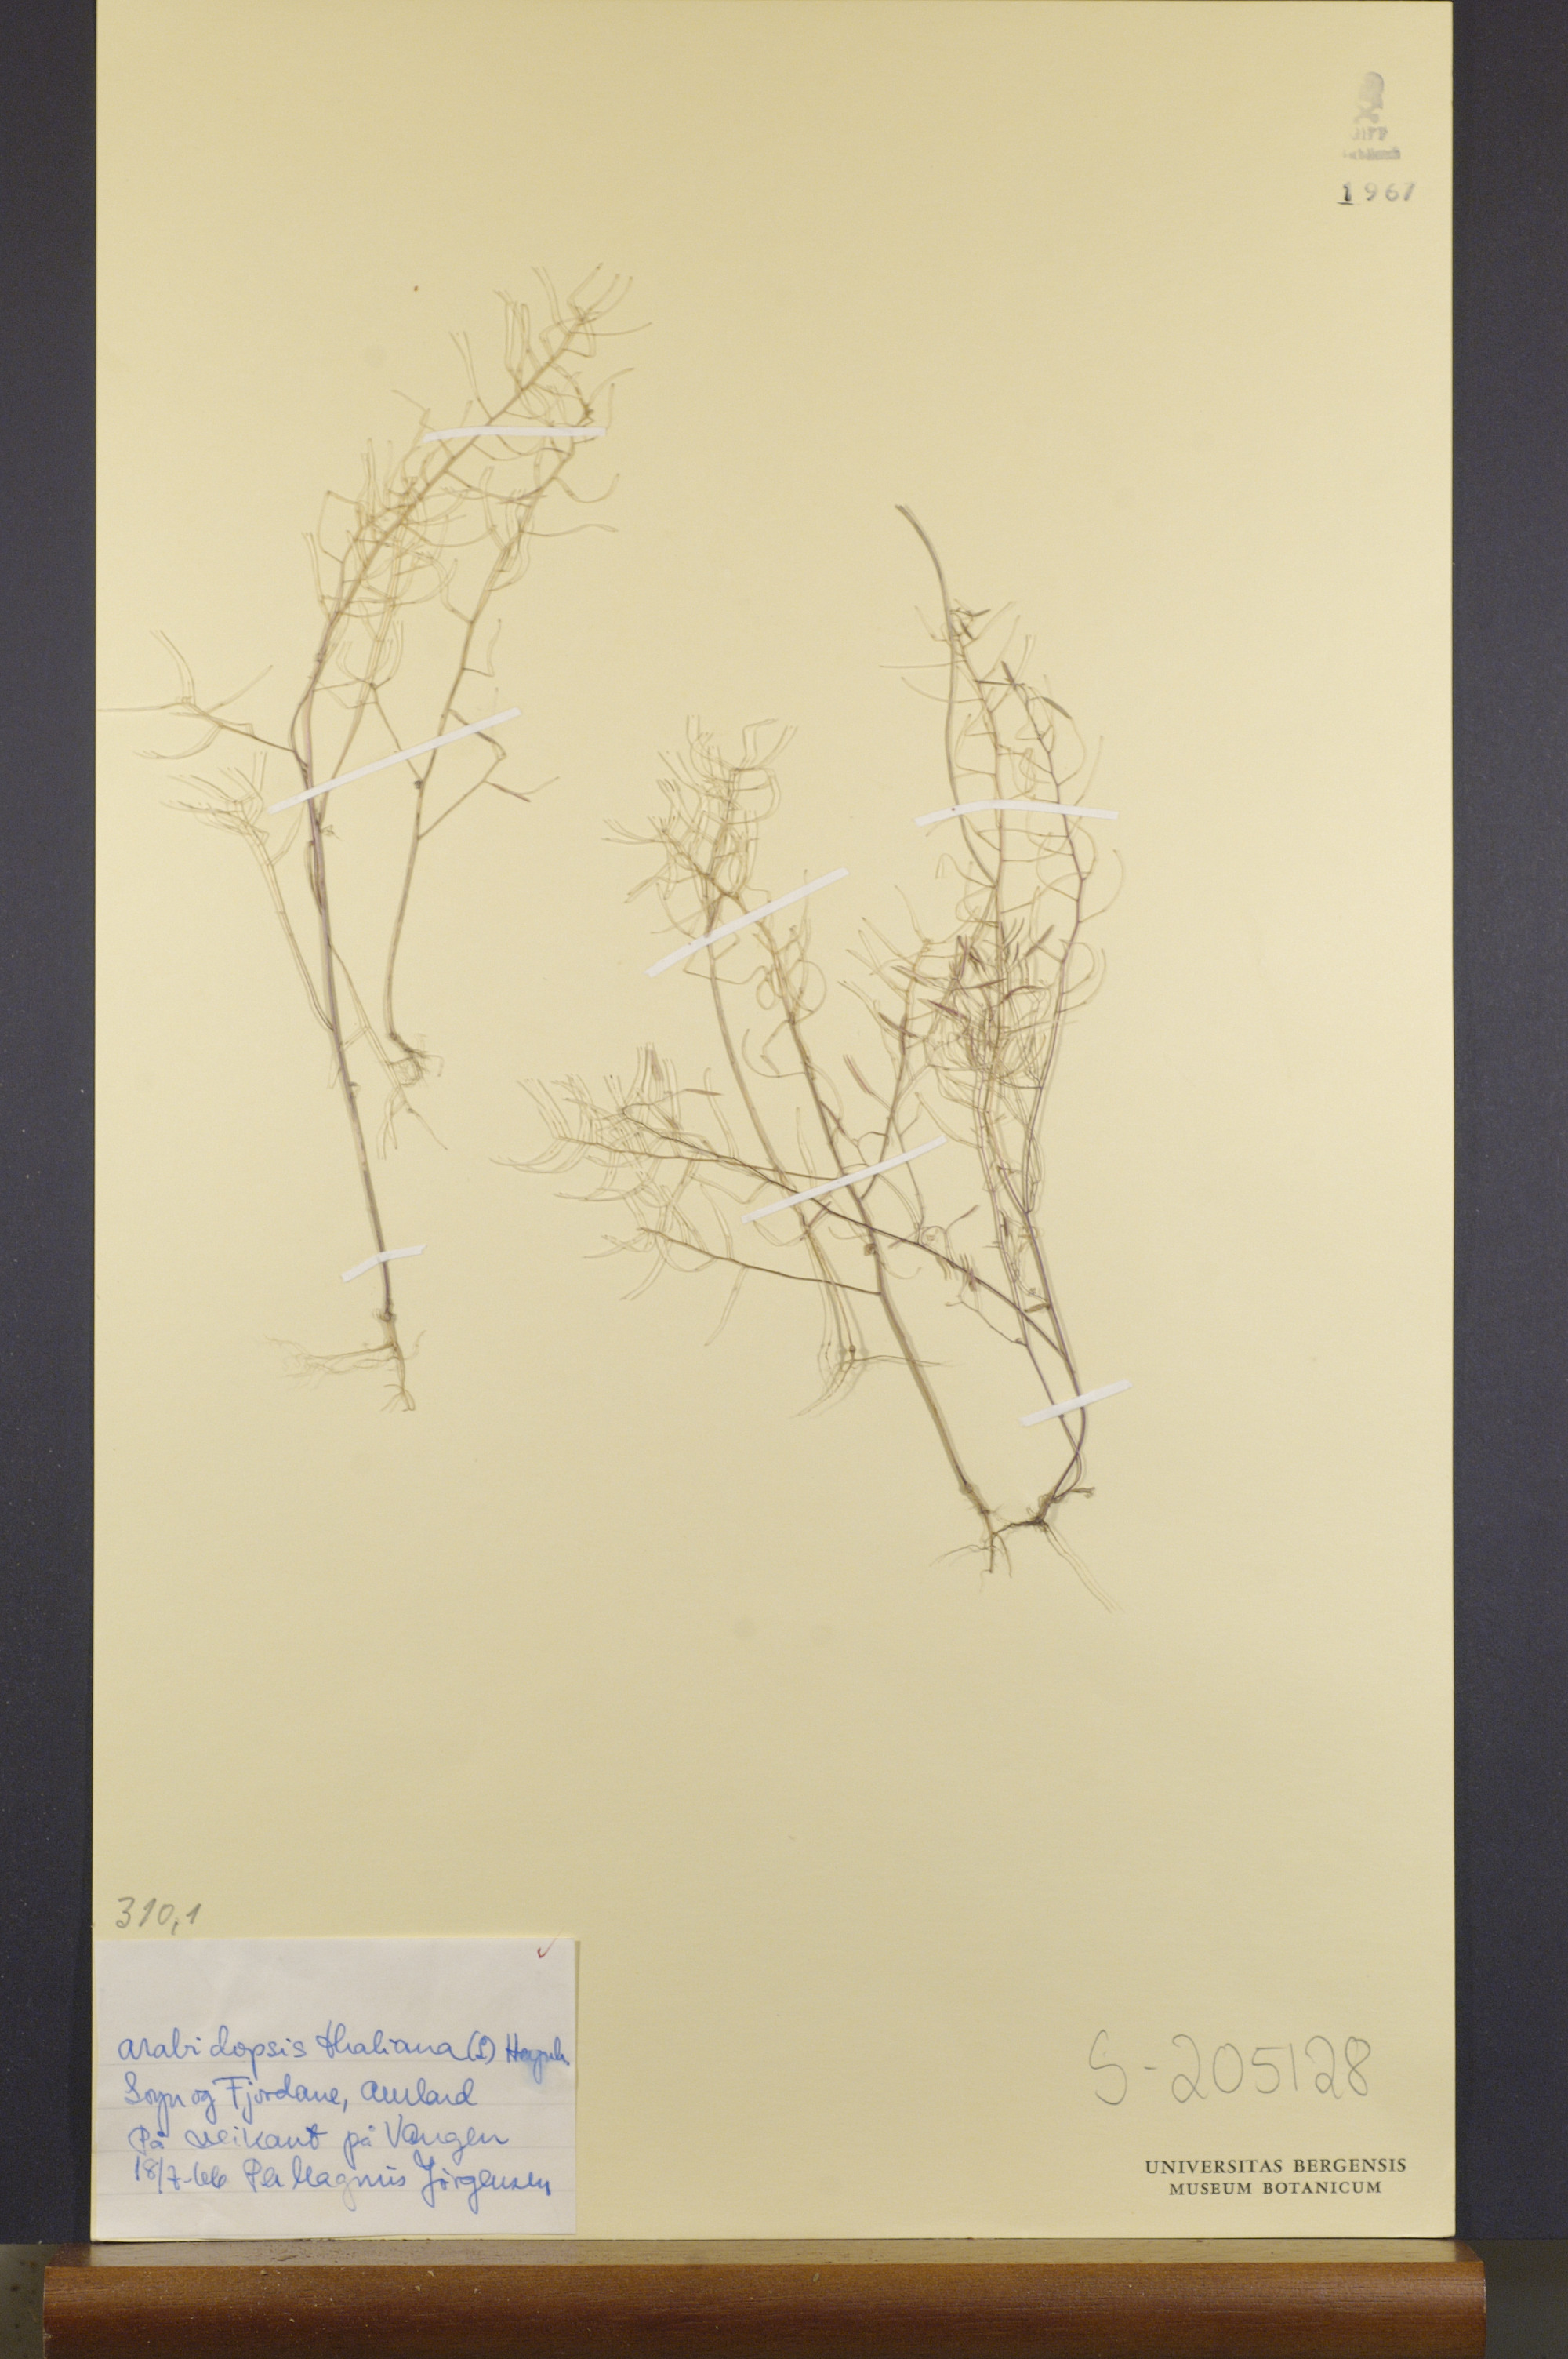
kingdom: Plantae
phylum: Tracheophyta
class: Magnoliopsida
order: Brassicales
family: Brassicaceae
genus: Arabidopsis
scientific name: Arabidopsis thaliana
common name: Thale cress
